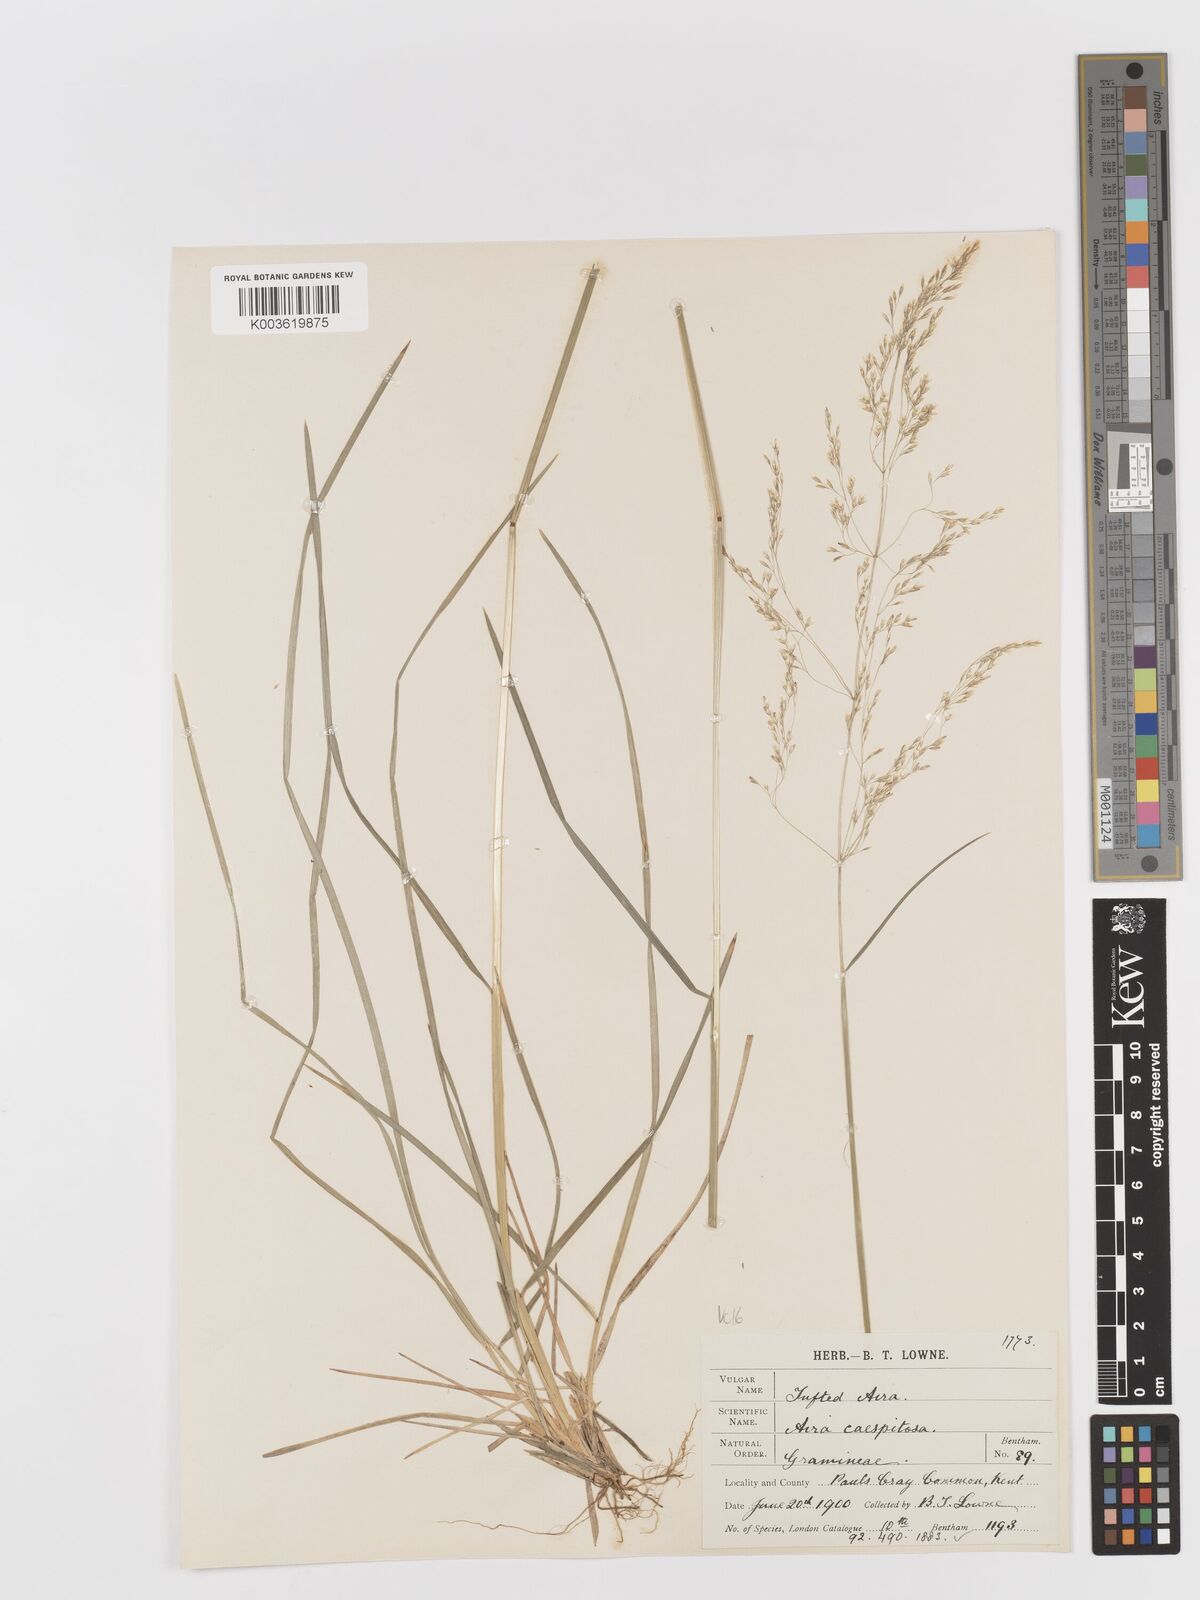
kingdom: Plantae
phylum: Tracheophyta
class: Liliopsida
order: Poales
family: Poaceae
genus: Deschampsia
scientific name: Deschampsia cespitosa
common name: Tufted hair-grass
